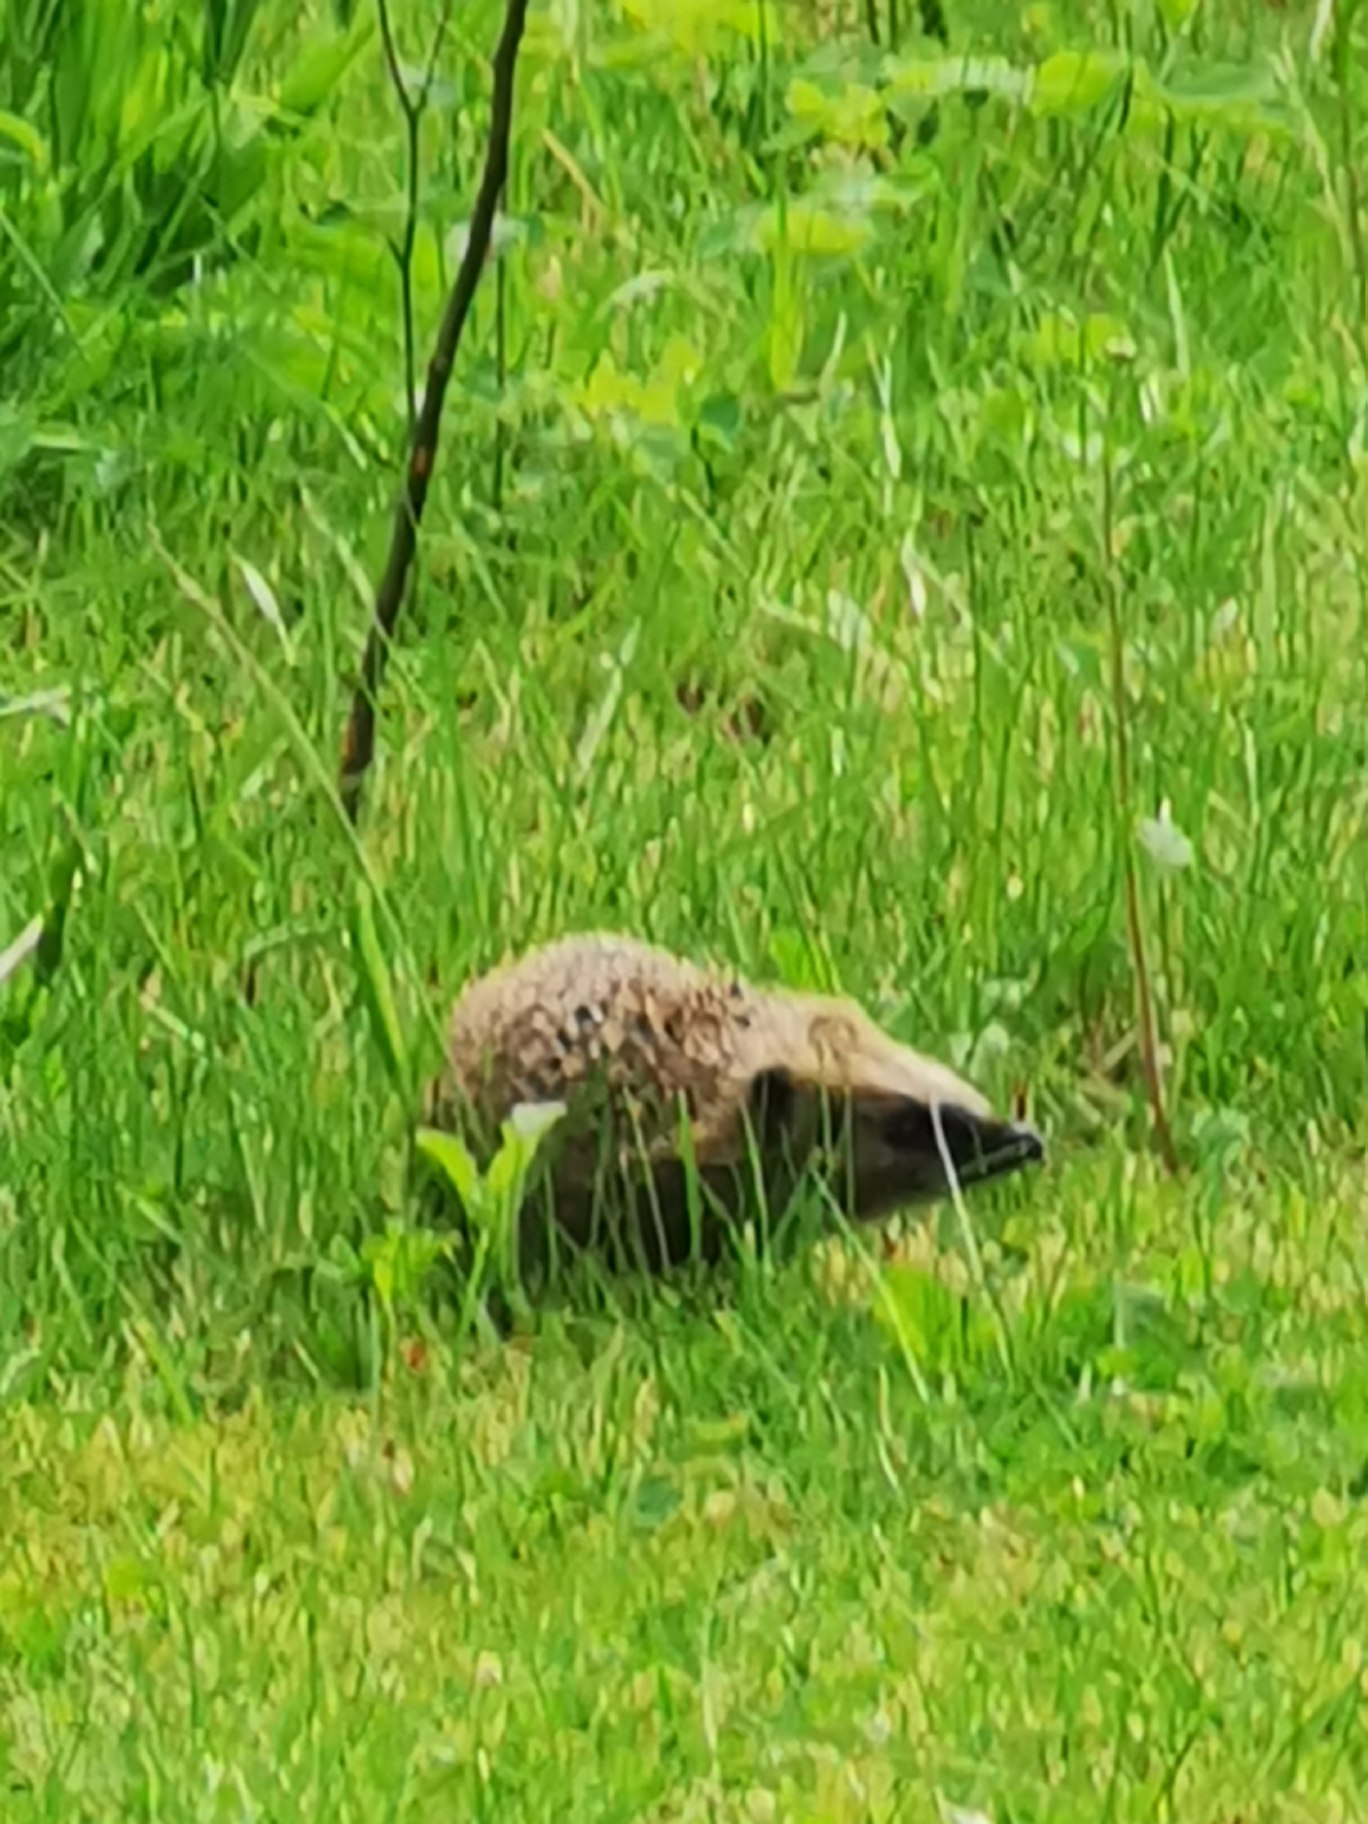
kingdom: Animalia
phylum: Chordata
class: Mammalia
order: Erinaceomorpha
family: Erinaceidae
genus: Erinaceus
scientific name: Erinaceus europaeus
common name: Pindsvin
